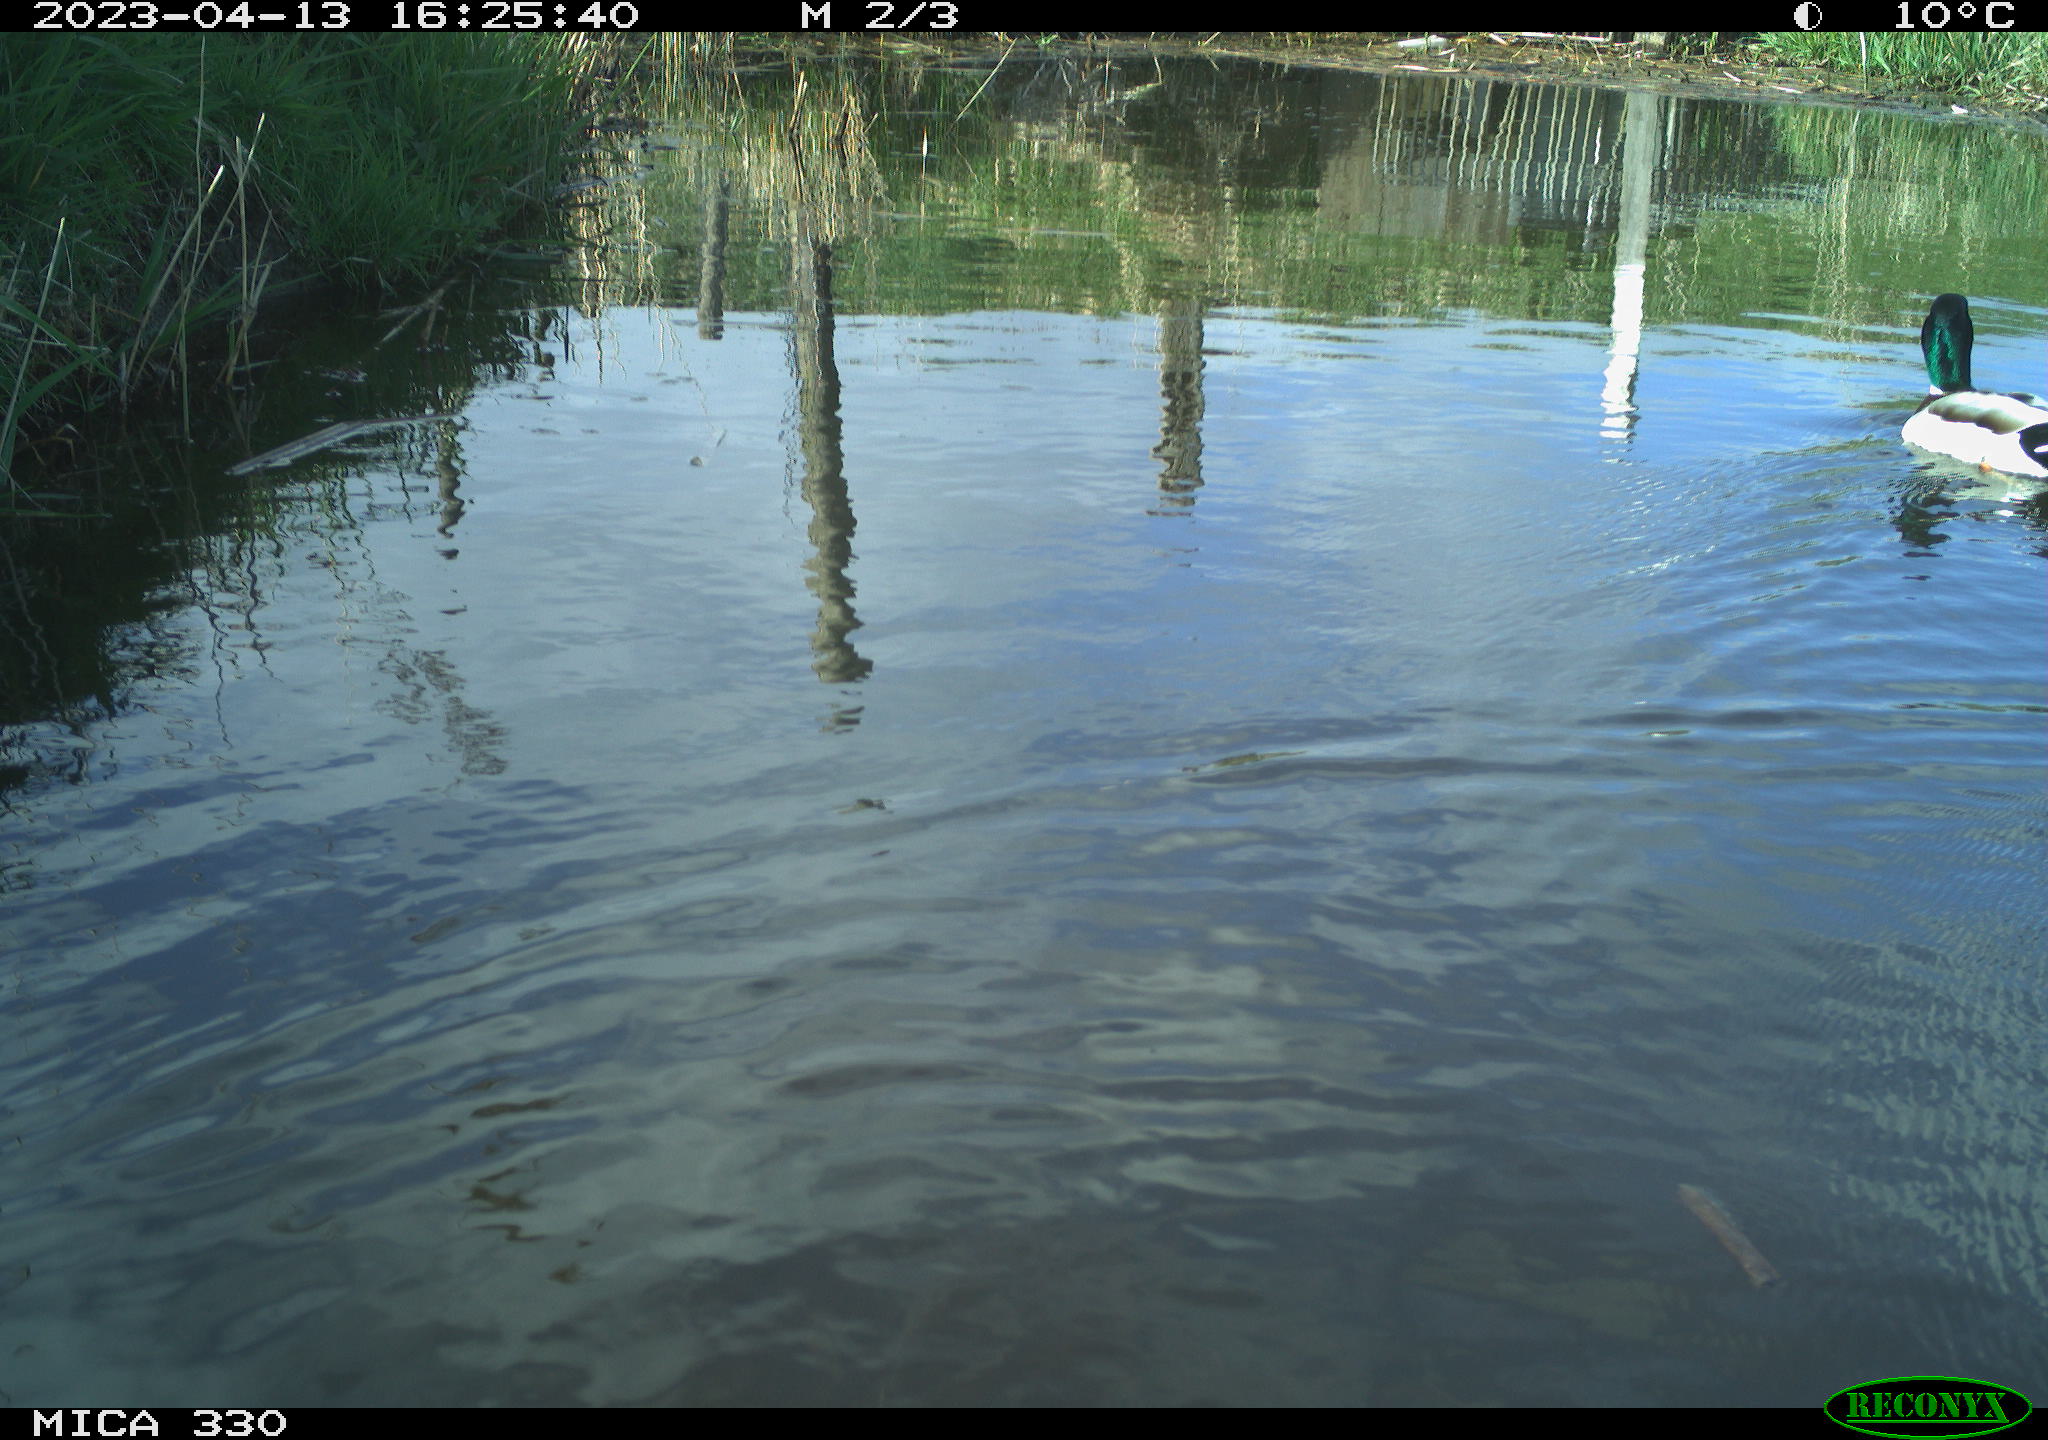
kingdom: Animalia
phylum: Chordata
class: Aves
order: Anseriformes
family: Anatidae
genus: Anas
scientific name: Anas
